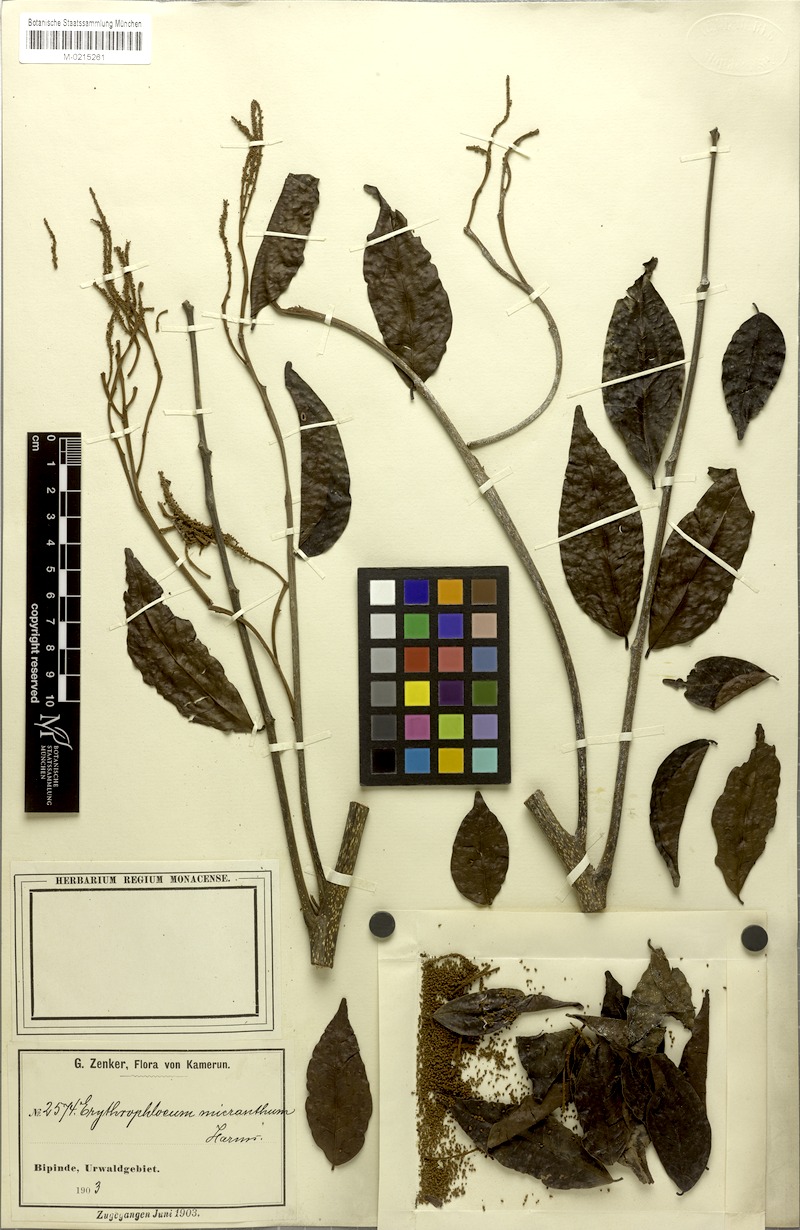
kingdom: Plantae
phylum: Tracheophyta
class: Magnoliopsida
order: Fabales
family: Fabaceae
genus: Erythrophleum
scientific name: Erythrophleum ivorense
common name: Ordealtree
